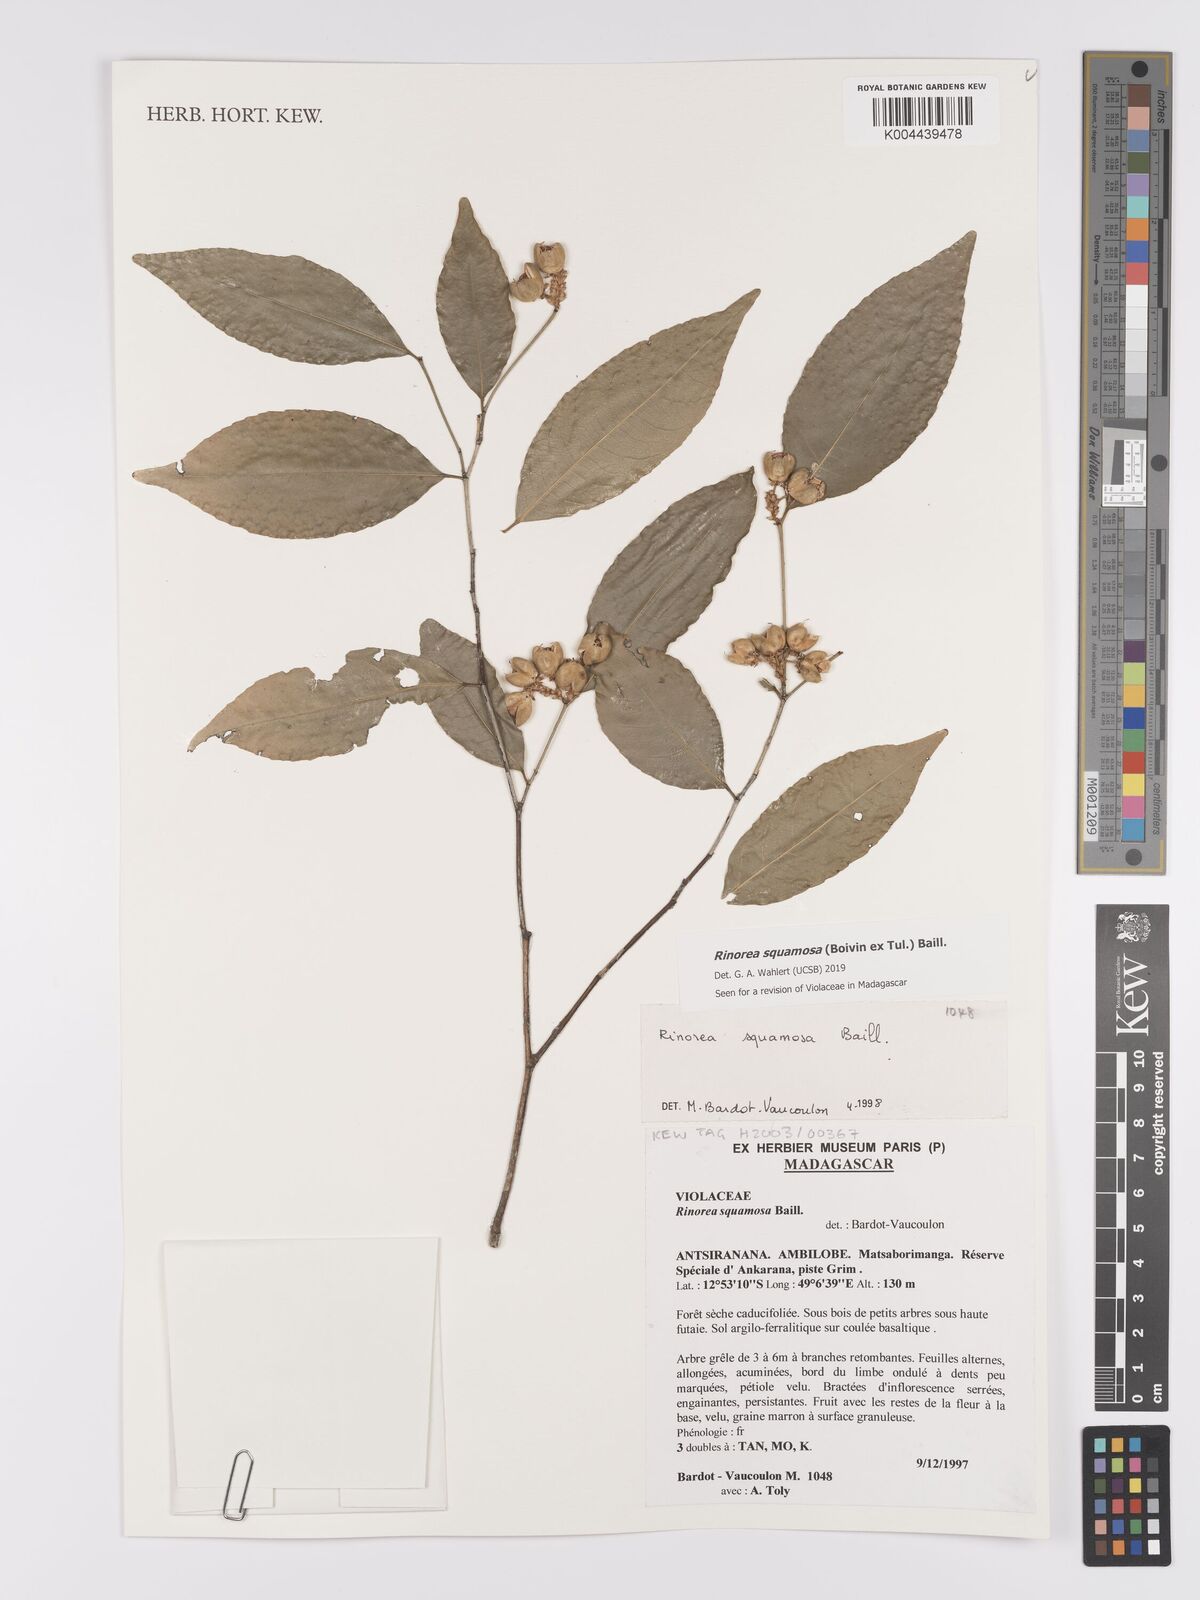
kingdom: Plantae
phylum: Tracheophyta
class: Magnoliopsida
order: Malpighiales
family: Violaceae
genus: Rinorea
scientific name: Rinorea squamosa
